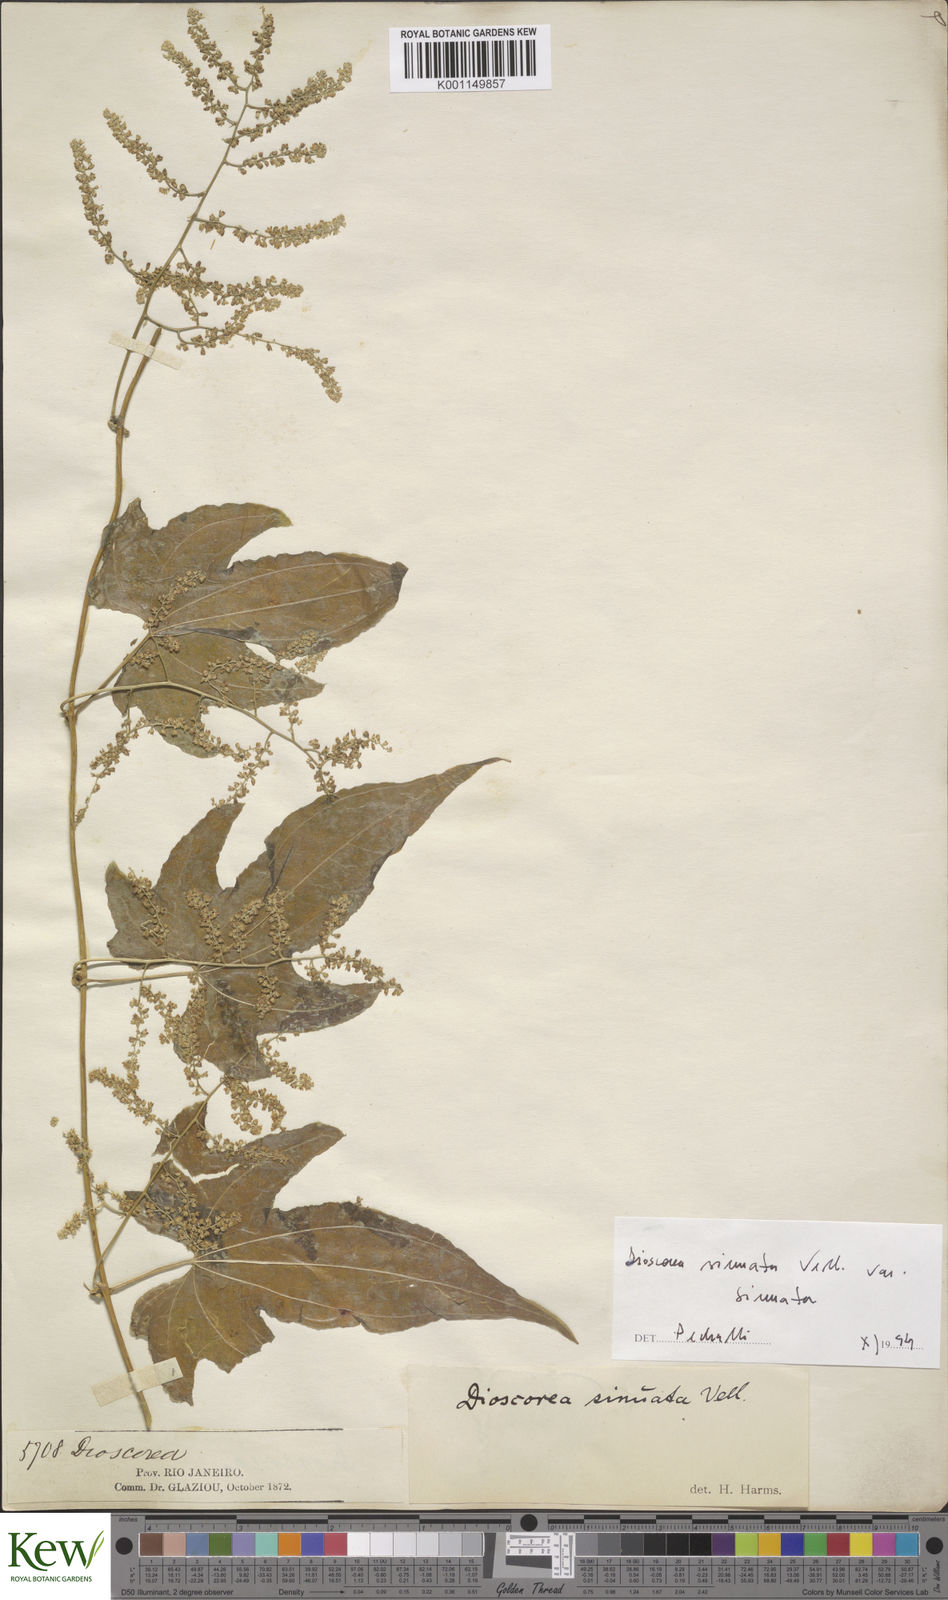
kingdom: Plantae
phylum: Tracheophyta
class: Liliopsida
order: Dioscoreales
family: Dioscoreaceae
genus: Dioscorea
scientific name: Dioscorea sinuata
